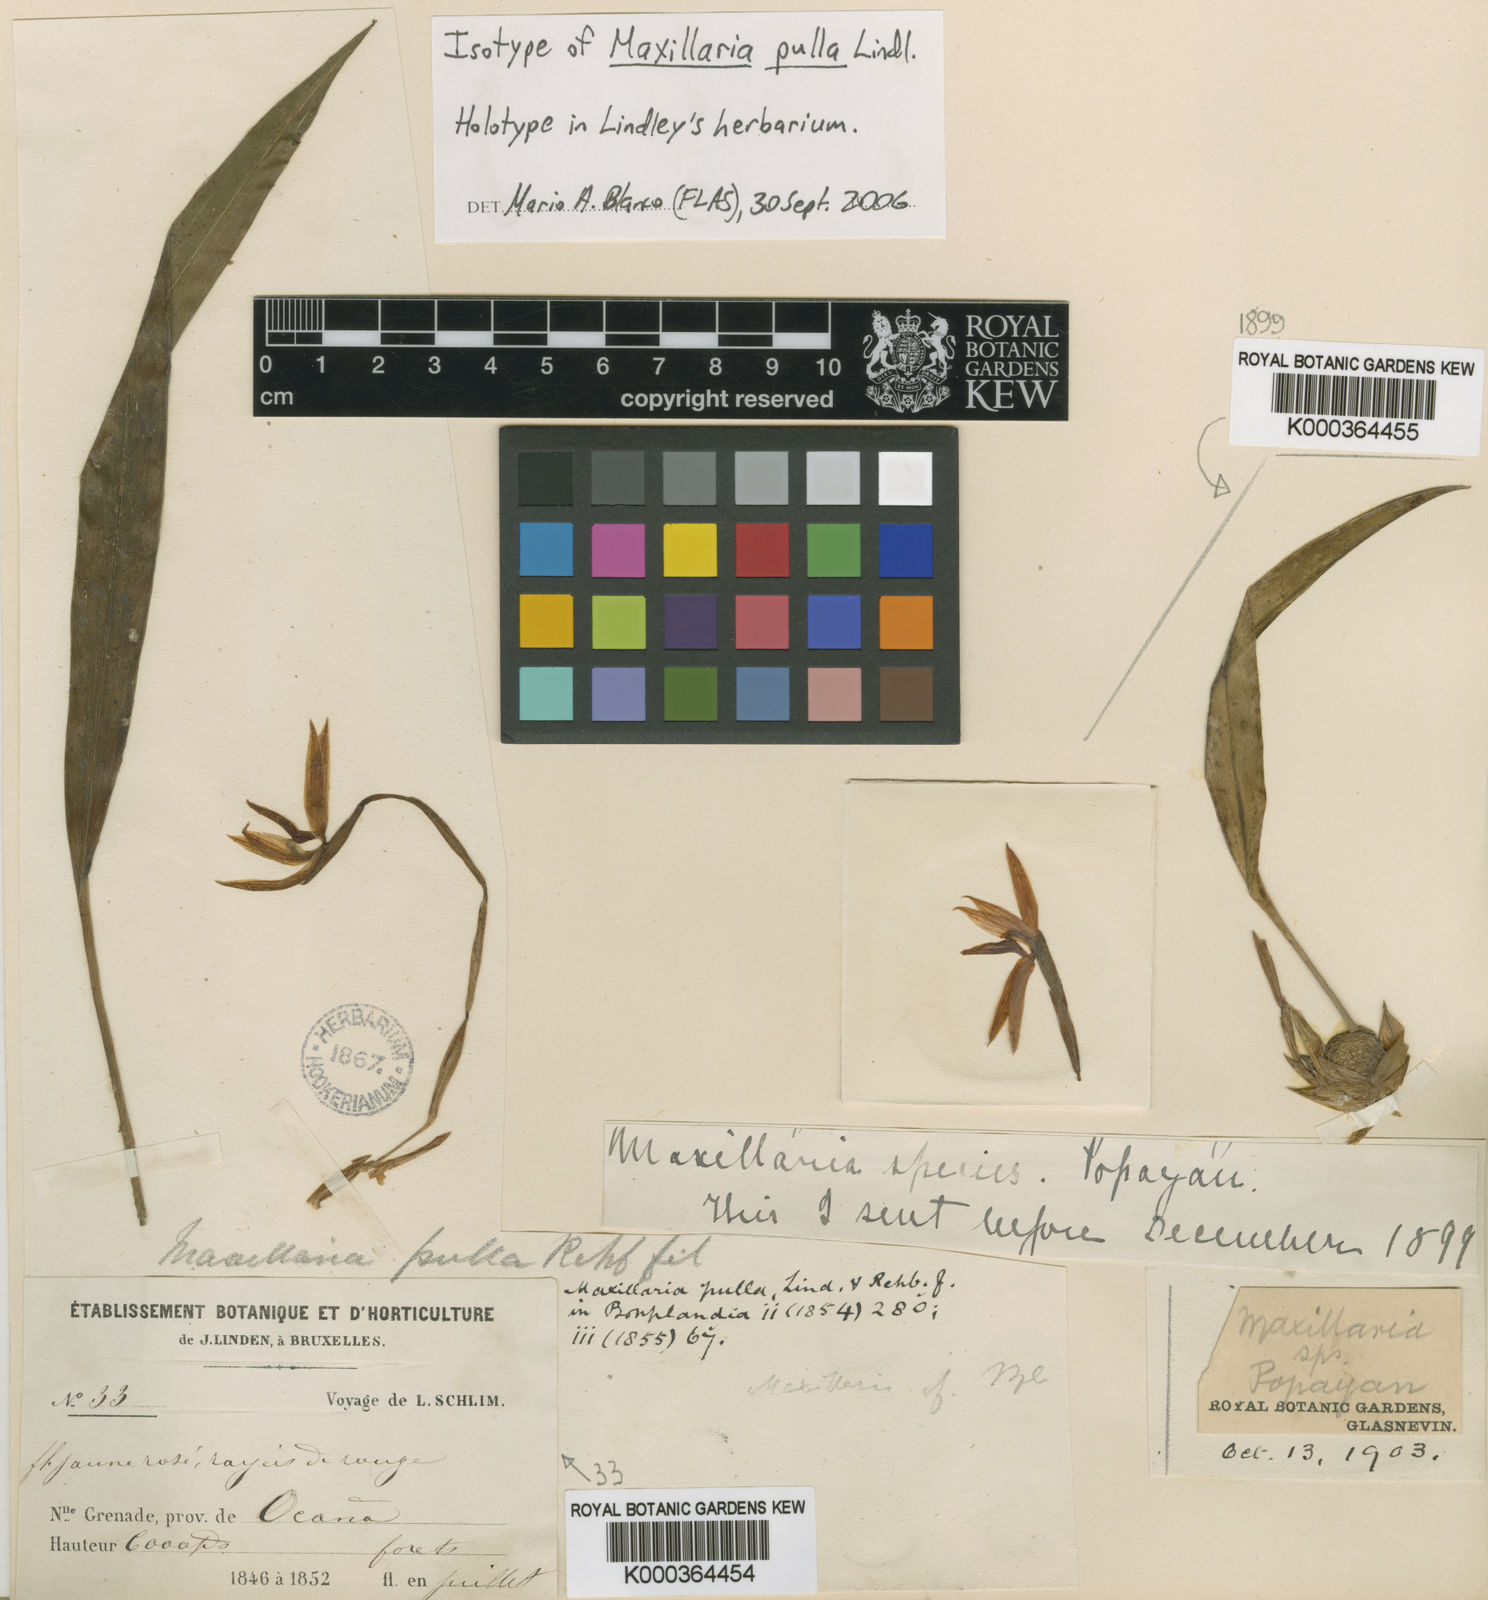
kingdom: Plantae
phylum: Tracheophyta
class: Liliopsida
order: Asparagales
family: Orchidaceae
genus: Maxillaria
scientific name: Maxillaria pulla
